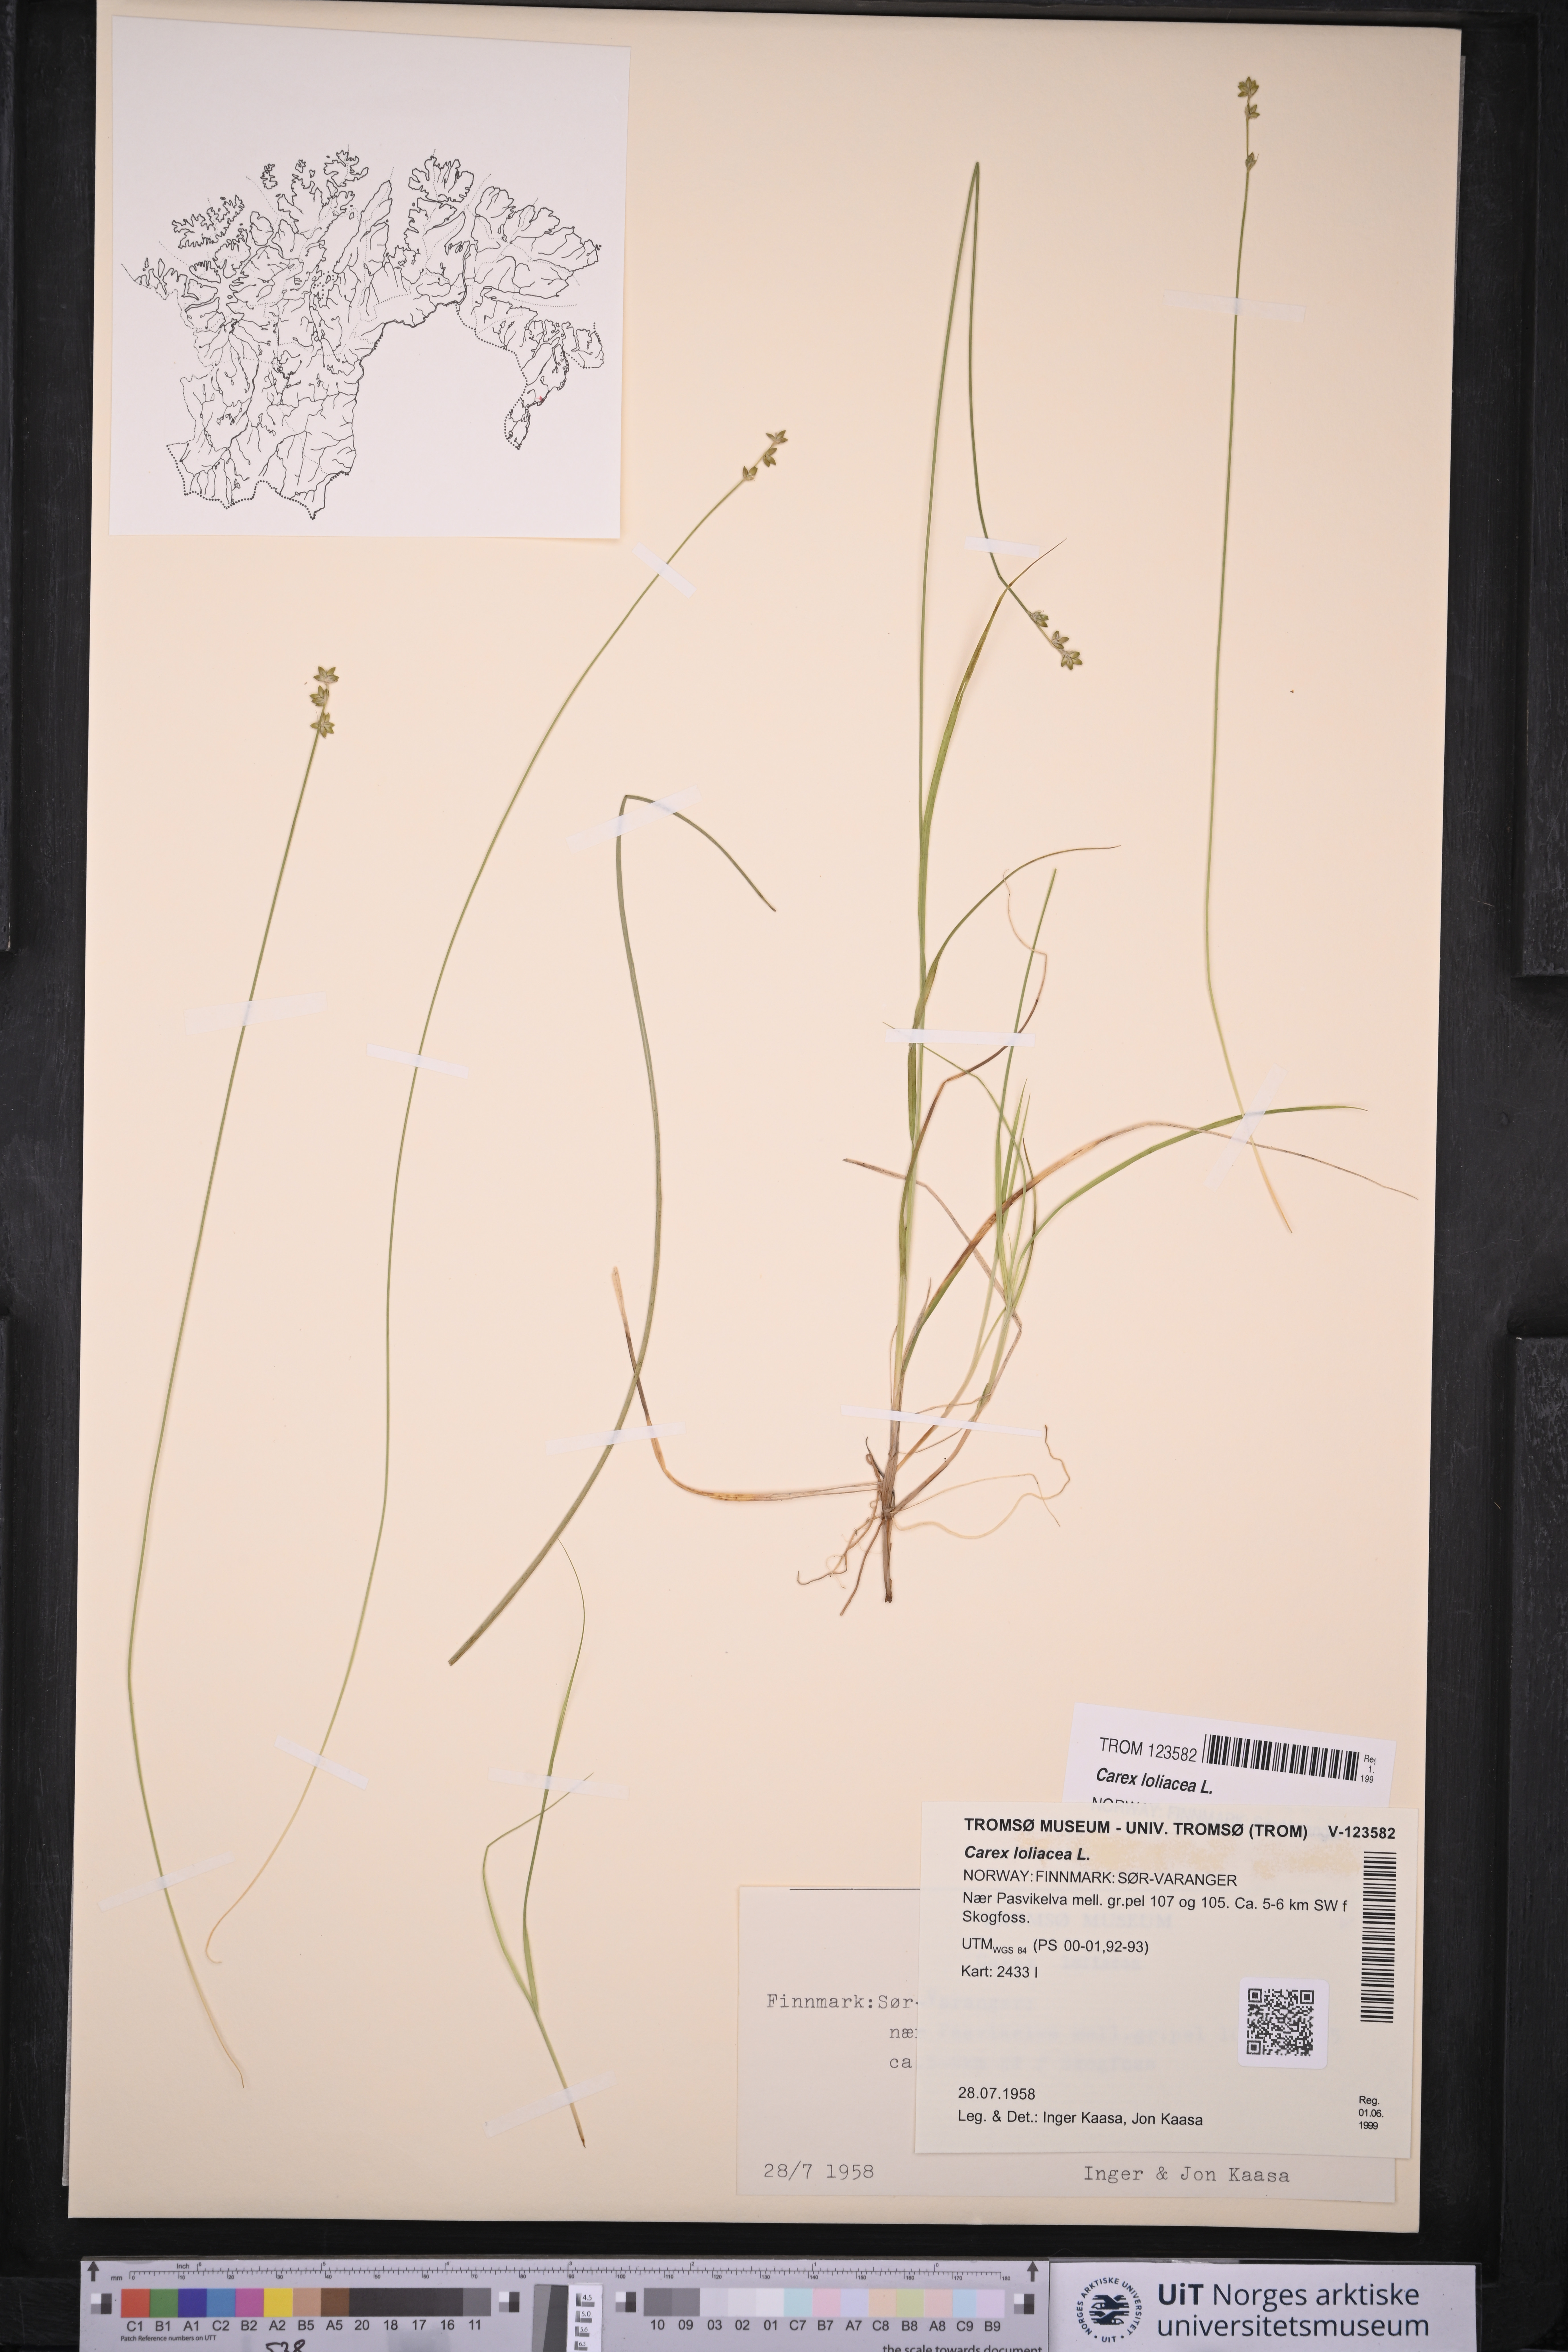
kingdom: Plantae
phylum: Tracheophyta
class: Liliopsida
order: Poales
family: Cyperaceae
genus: Carex
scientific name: Carex loliacea
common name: Ryegrass sedge
